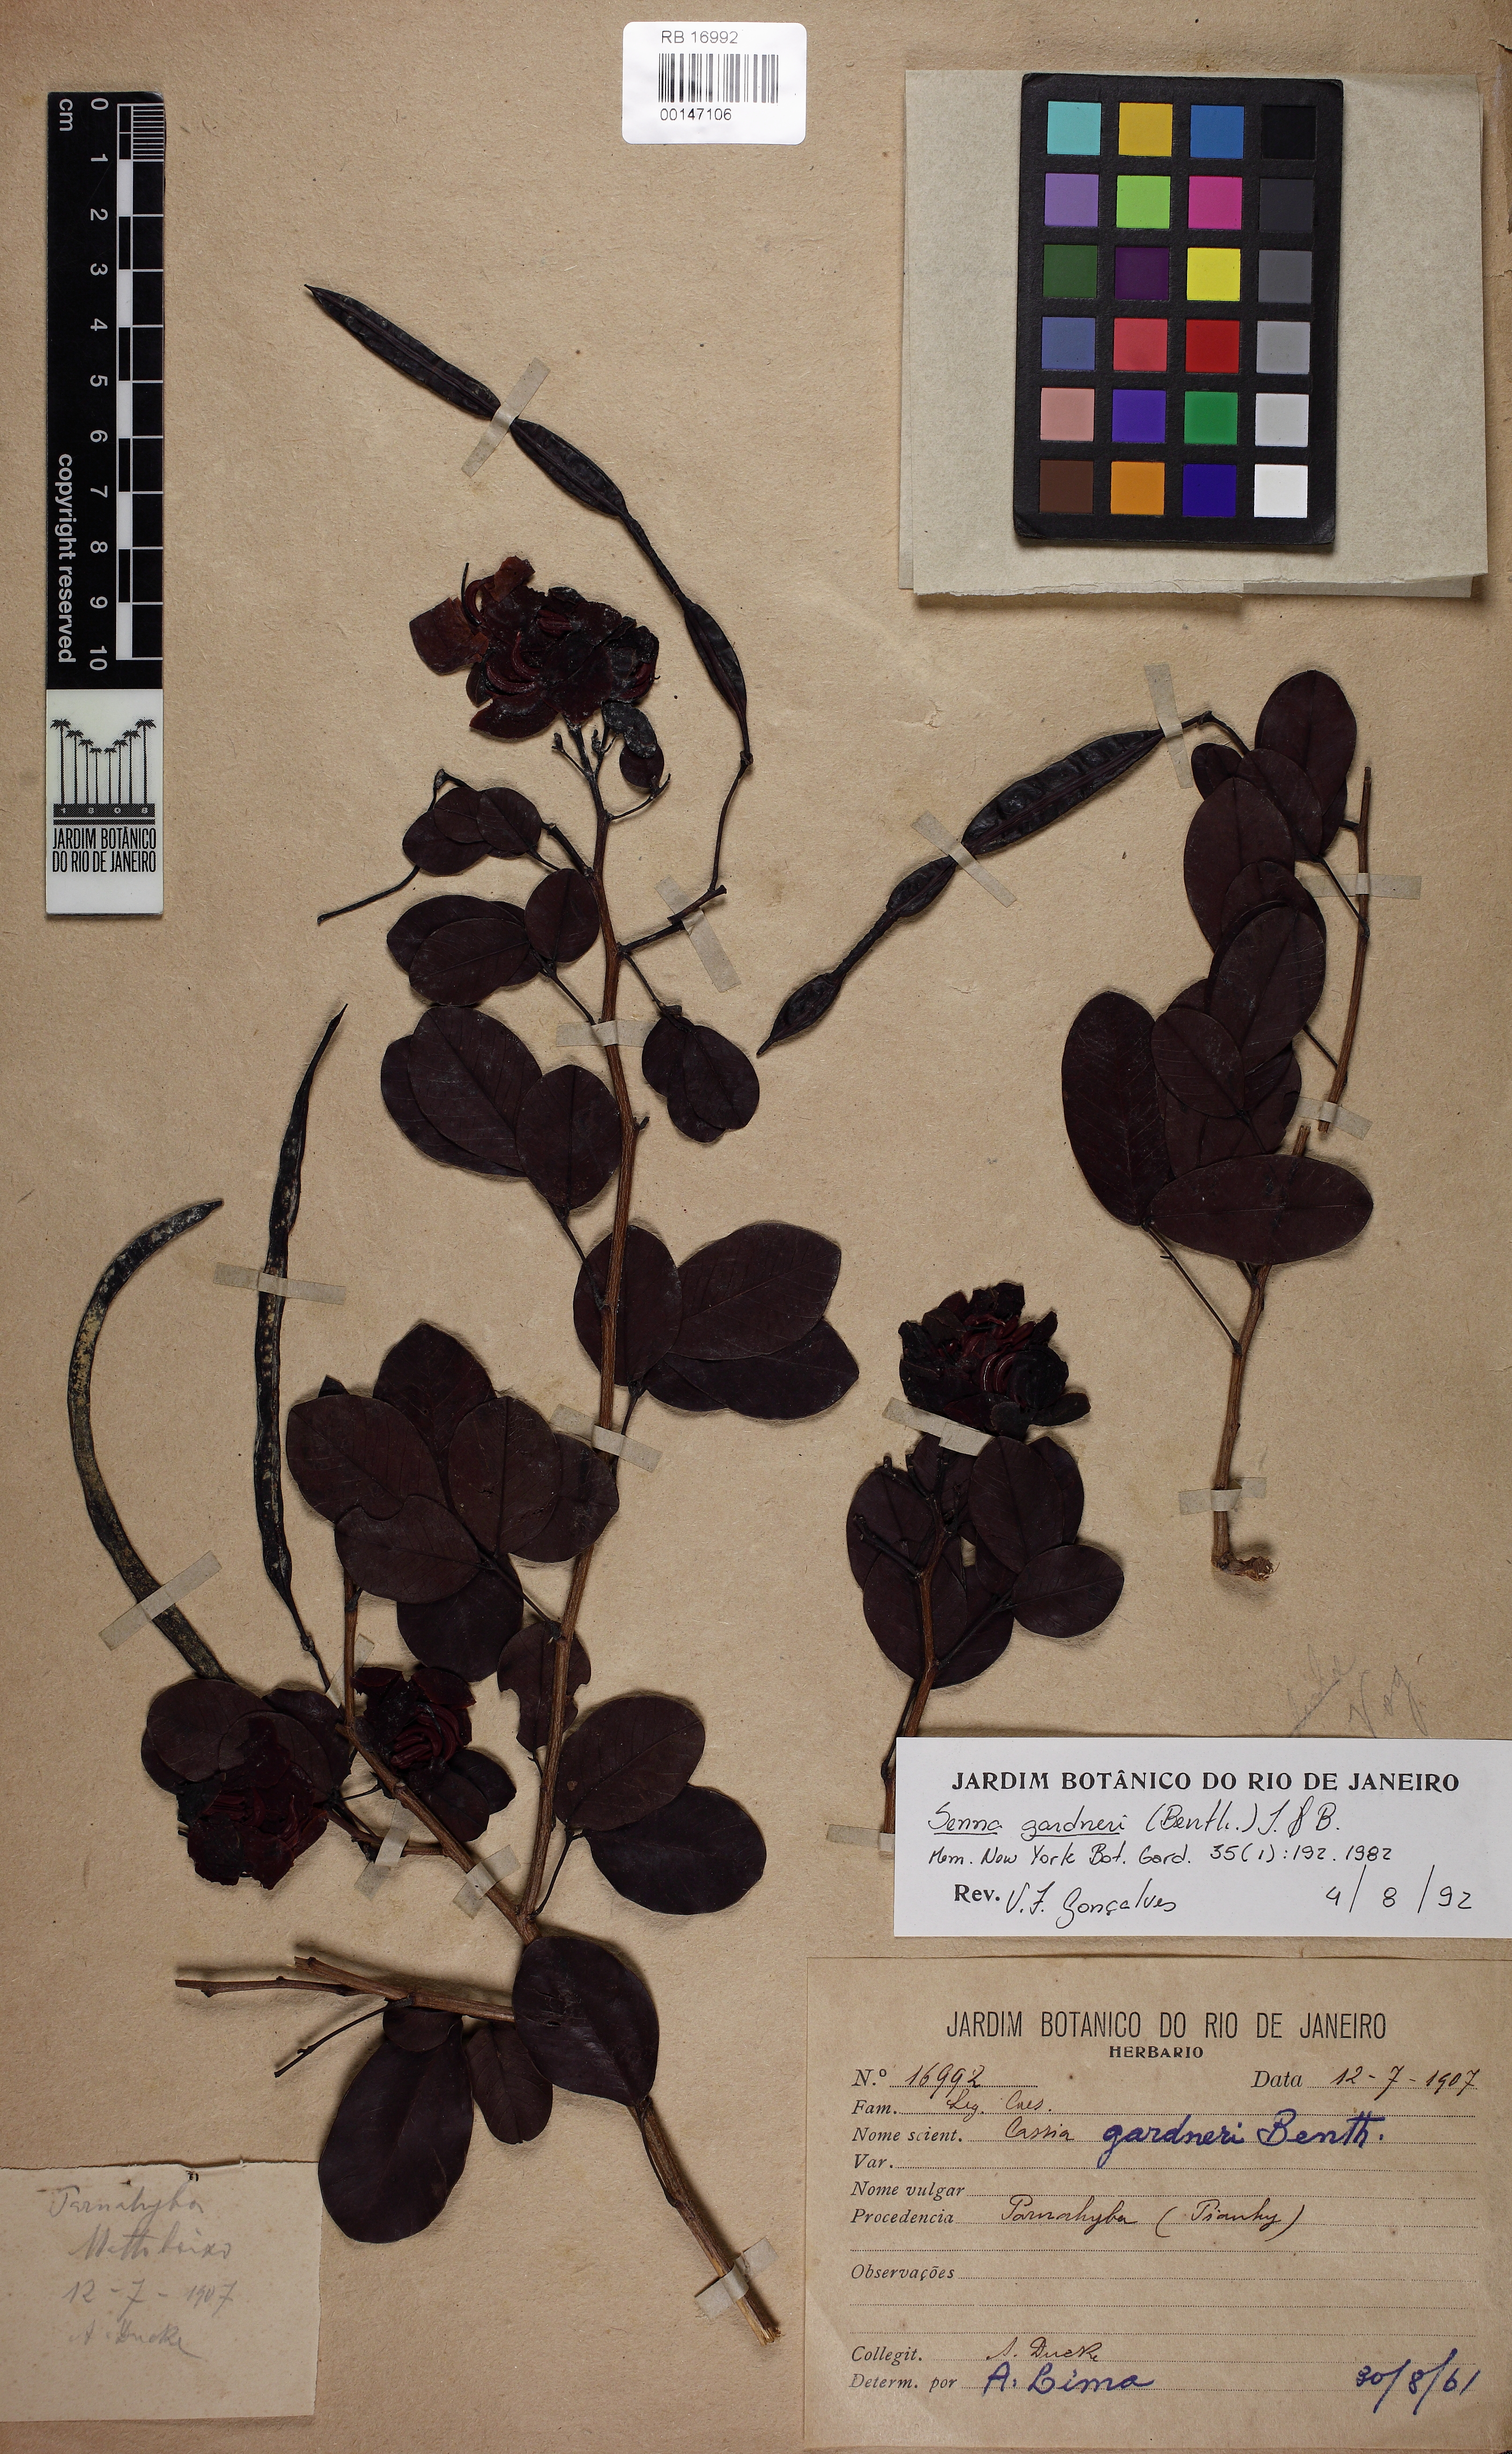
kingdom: Plantae
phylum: Tracheophyta
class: Magnoliopsida
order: Fabales
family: Fabaceae
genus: Senna
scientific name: Senna gardneri
